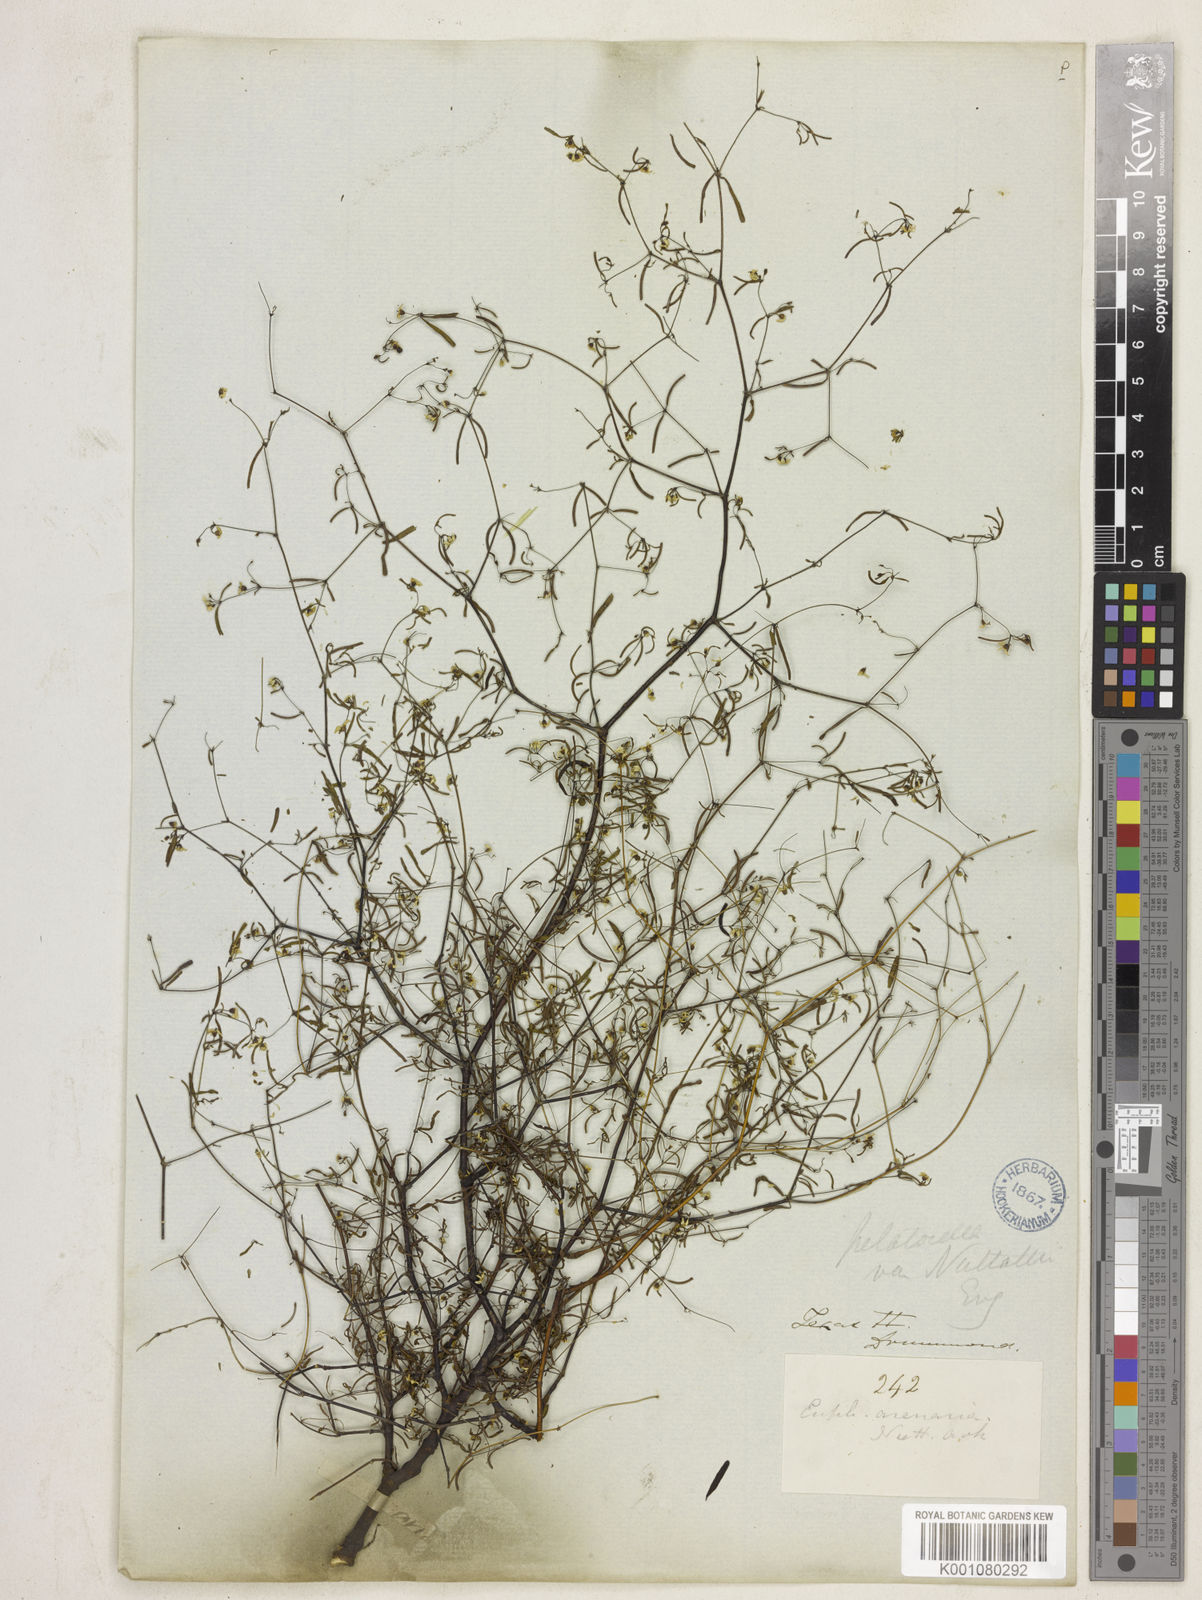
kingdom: Plantae
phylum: Tracheophyta
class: Magnoliopsida
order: Malpighiales
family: Euphorbiaceae
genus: Euphorbia
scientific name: Euphorbia missurica
